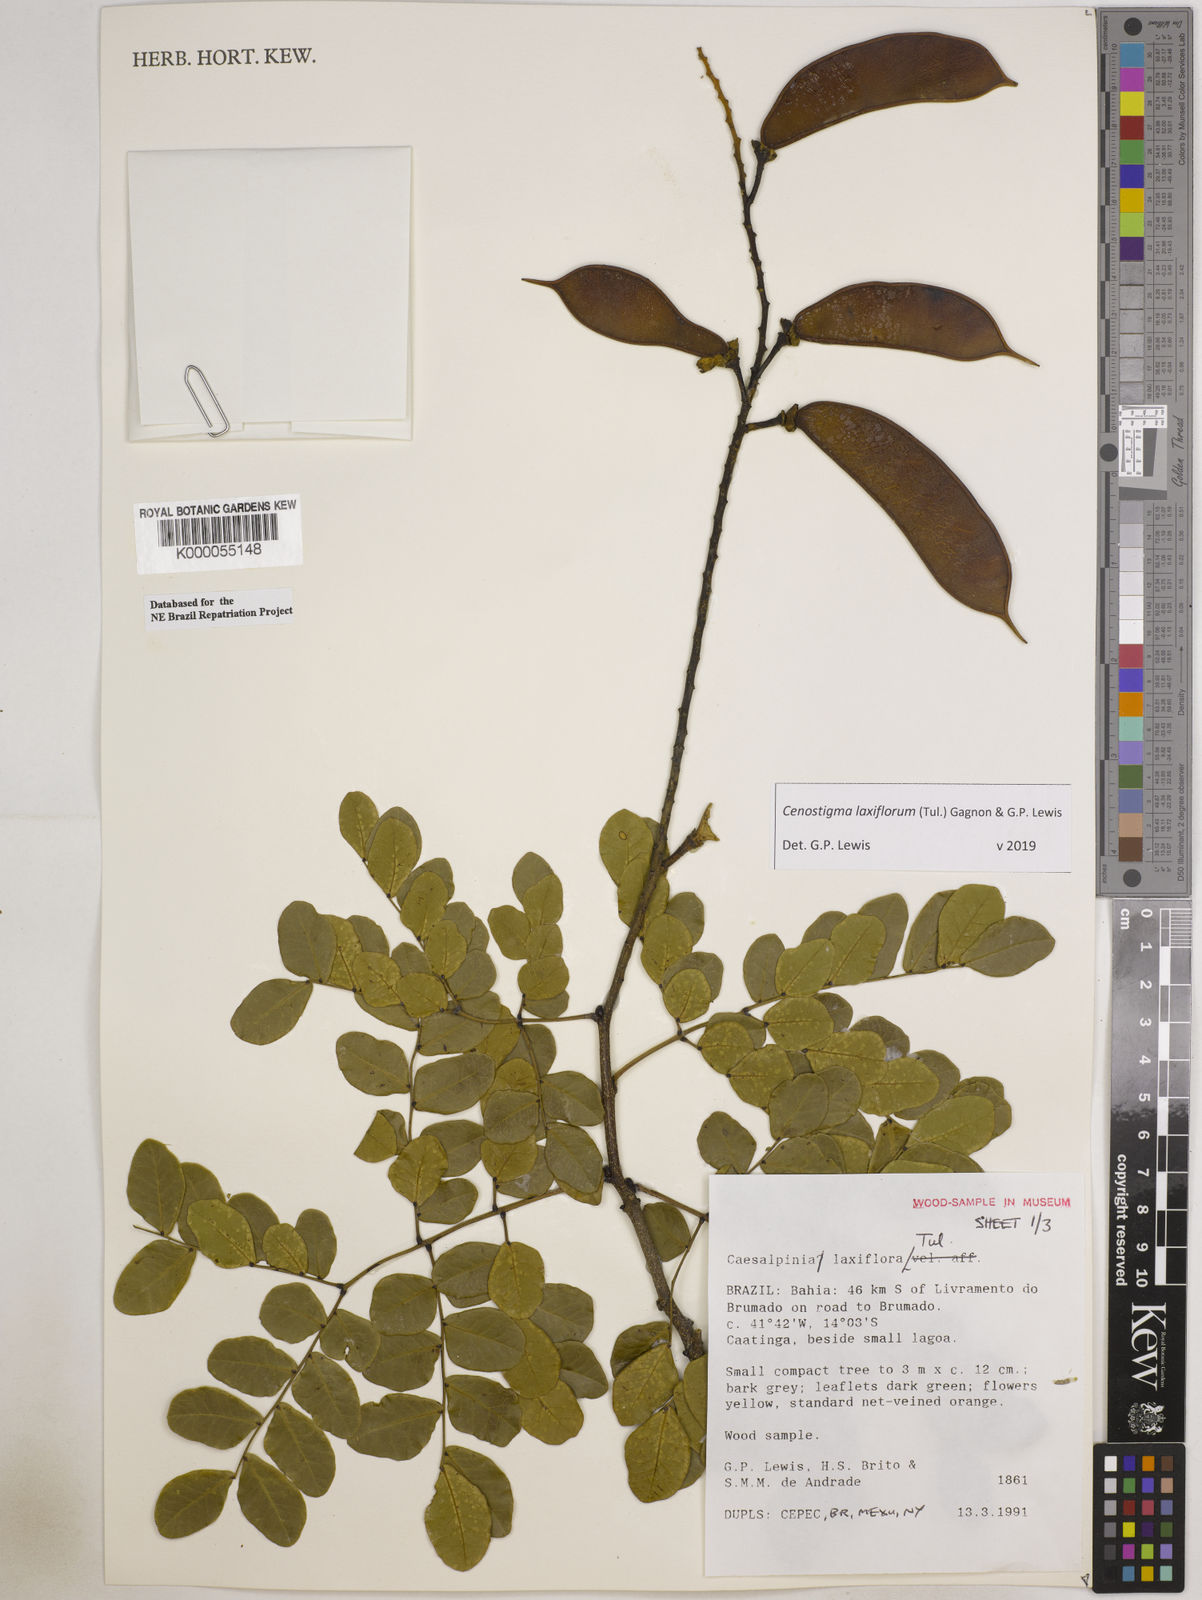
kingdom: Plantae
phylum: Tracheophyta
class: Magnoliopsida
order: Fabales
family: Fabaceae
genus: Cenostigma
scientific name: Cenostigma laxiflorum
